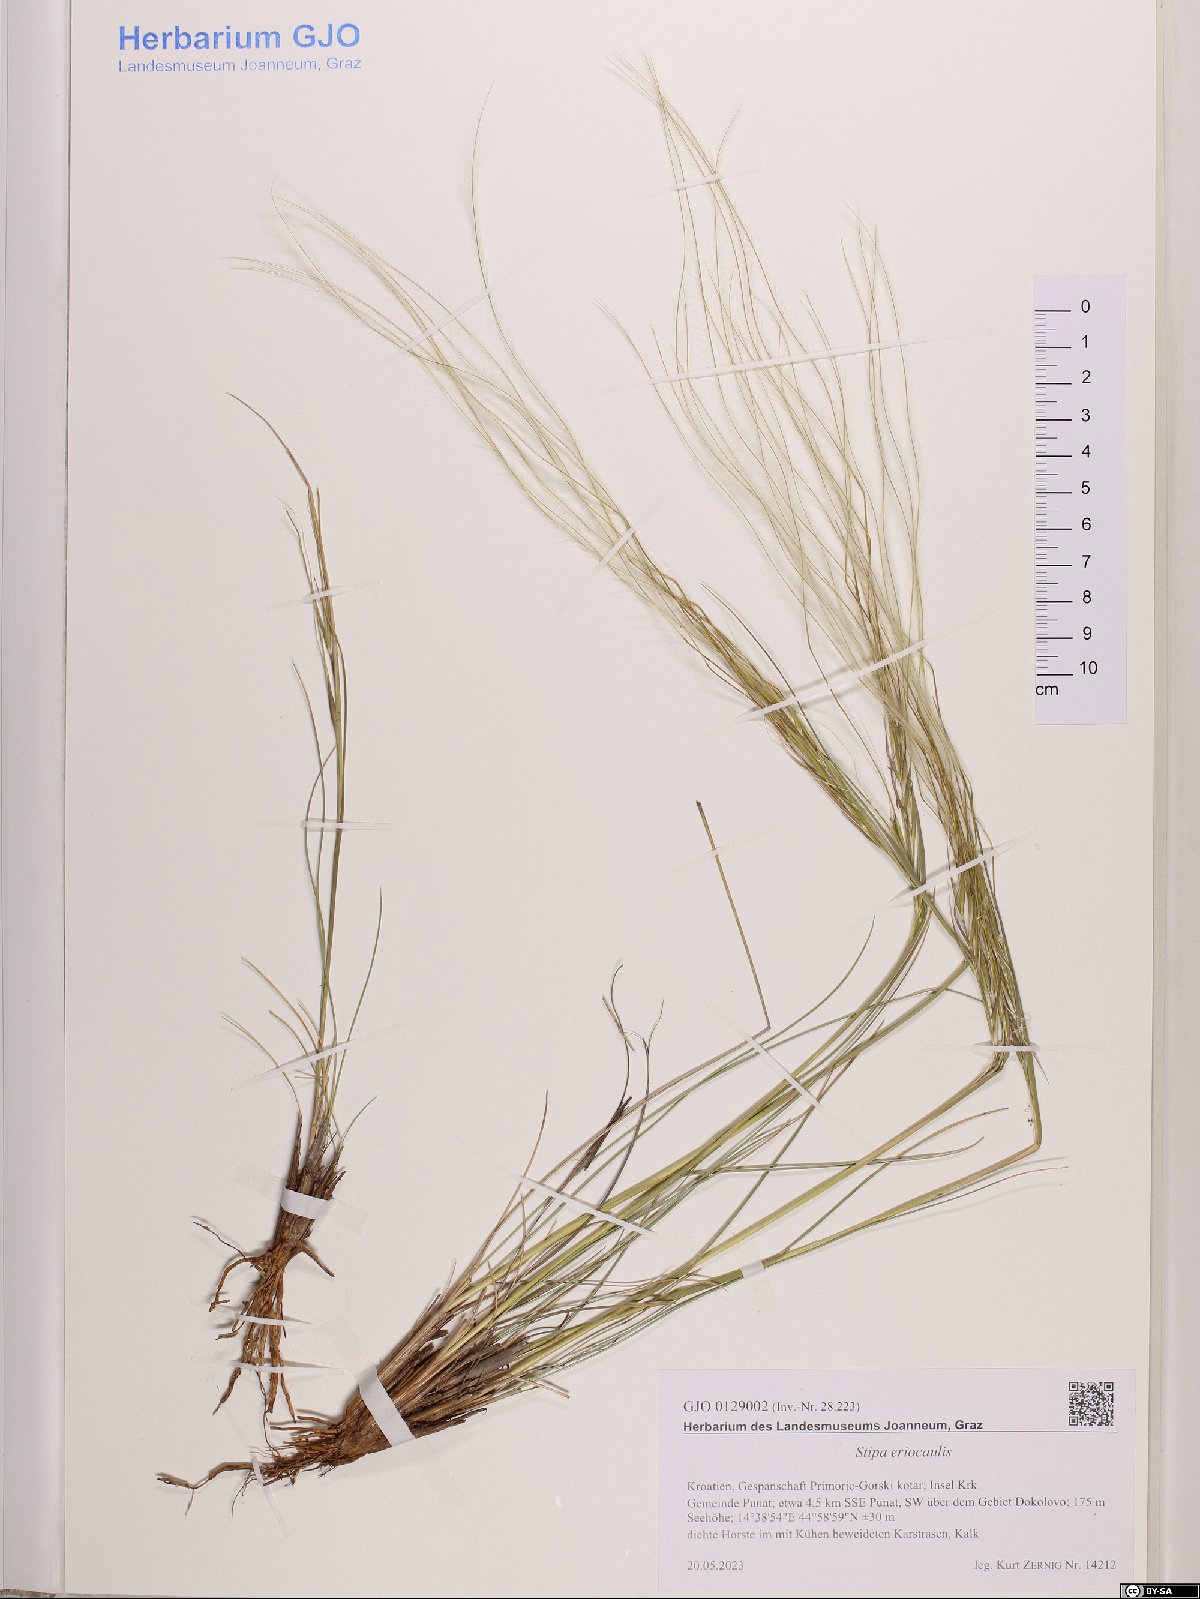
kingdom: Plantae
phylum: Tracheophyta
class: Liliopsida
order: Poales
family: Poaceae
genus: Stipa
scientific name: Stipa pennata
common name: European feather grass
